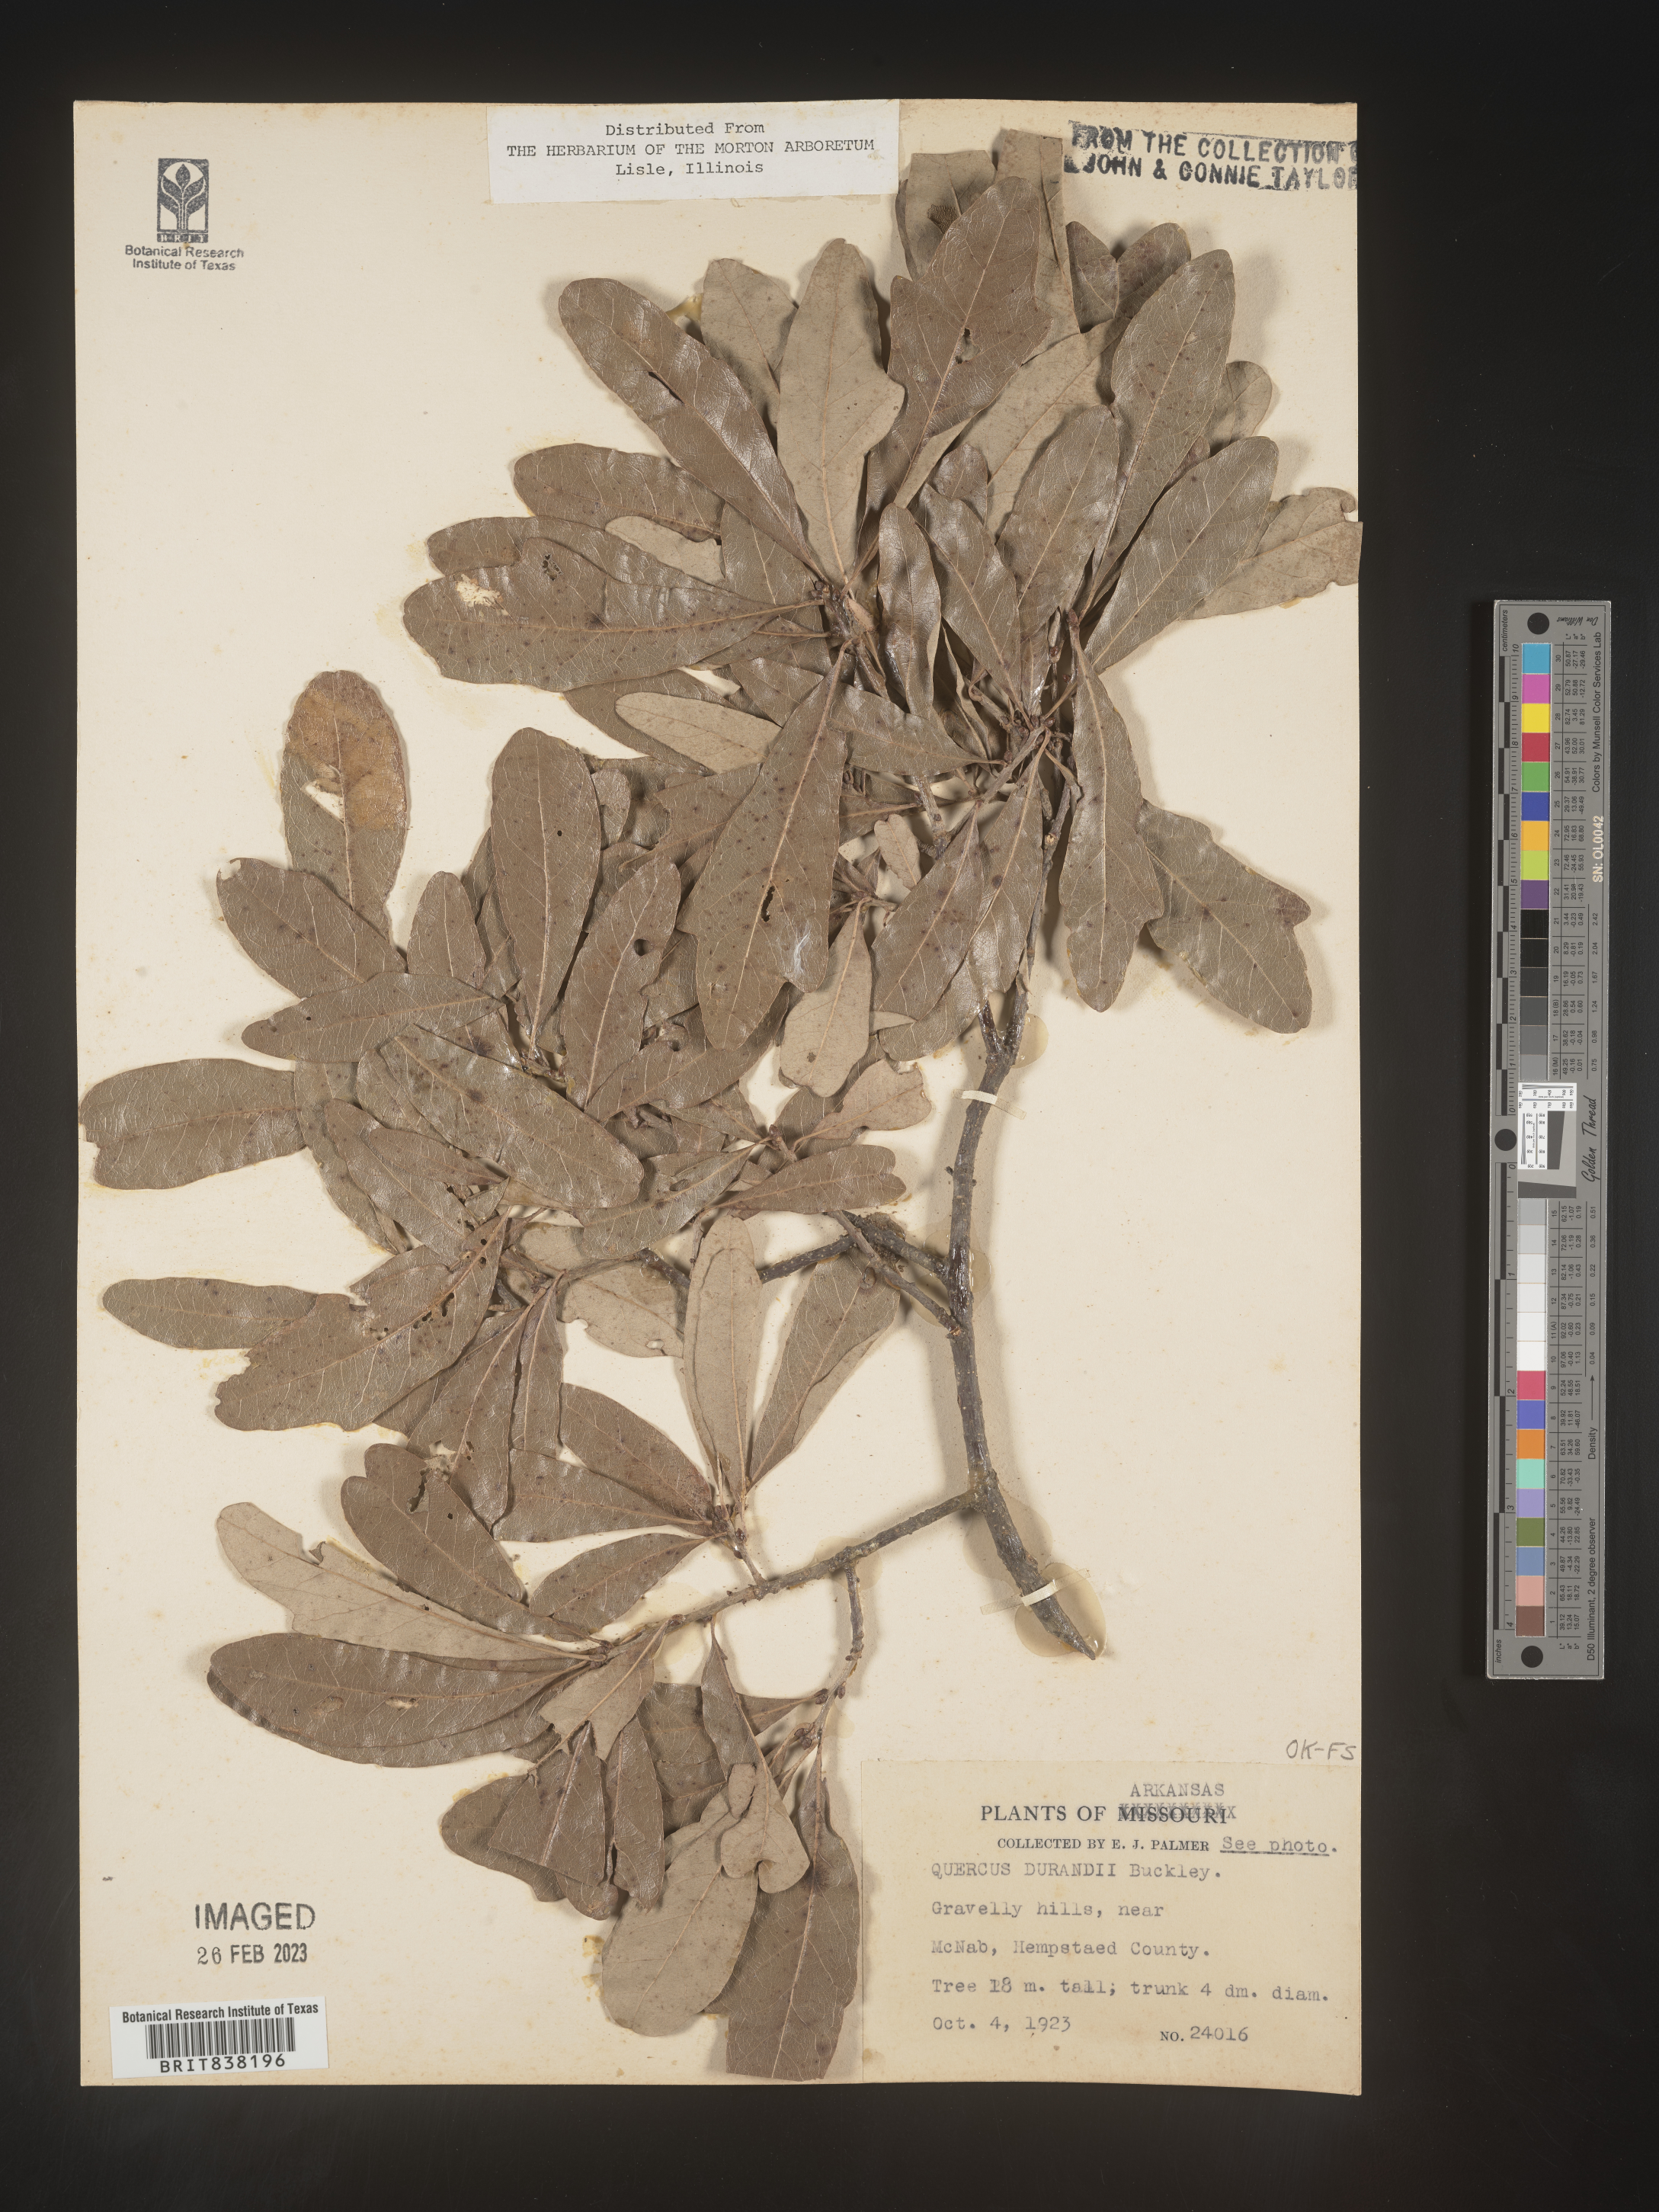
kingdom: Plantae
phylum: Tracheophyta
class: Magnoliopsida
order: Fagales
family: Fagaceae
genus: Quercus
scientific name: Quercus sinuata
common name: Durand oak
